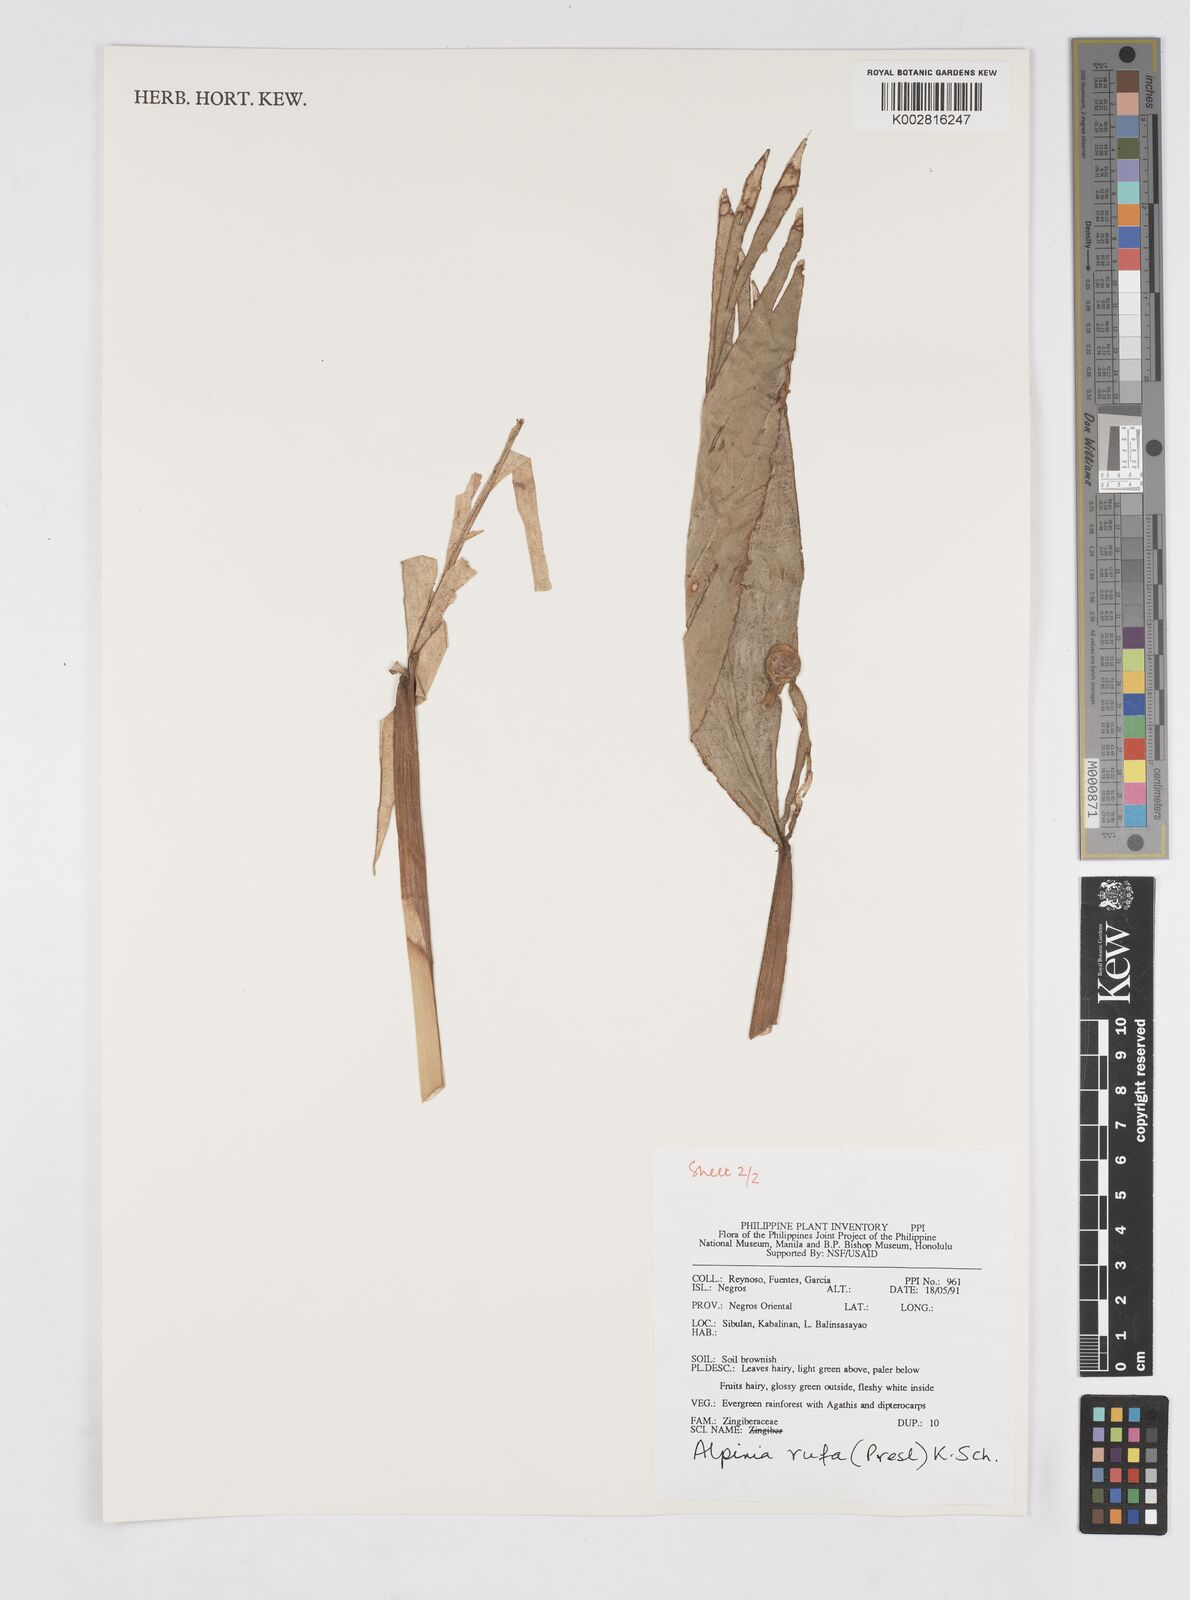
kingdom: Plantae
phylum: Tracheophyta
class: Liliopsida
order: Zingiberales
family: Zingiberaceae
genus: Alpinia
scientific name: Alpinia rufa
